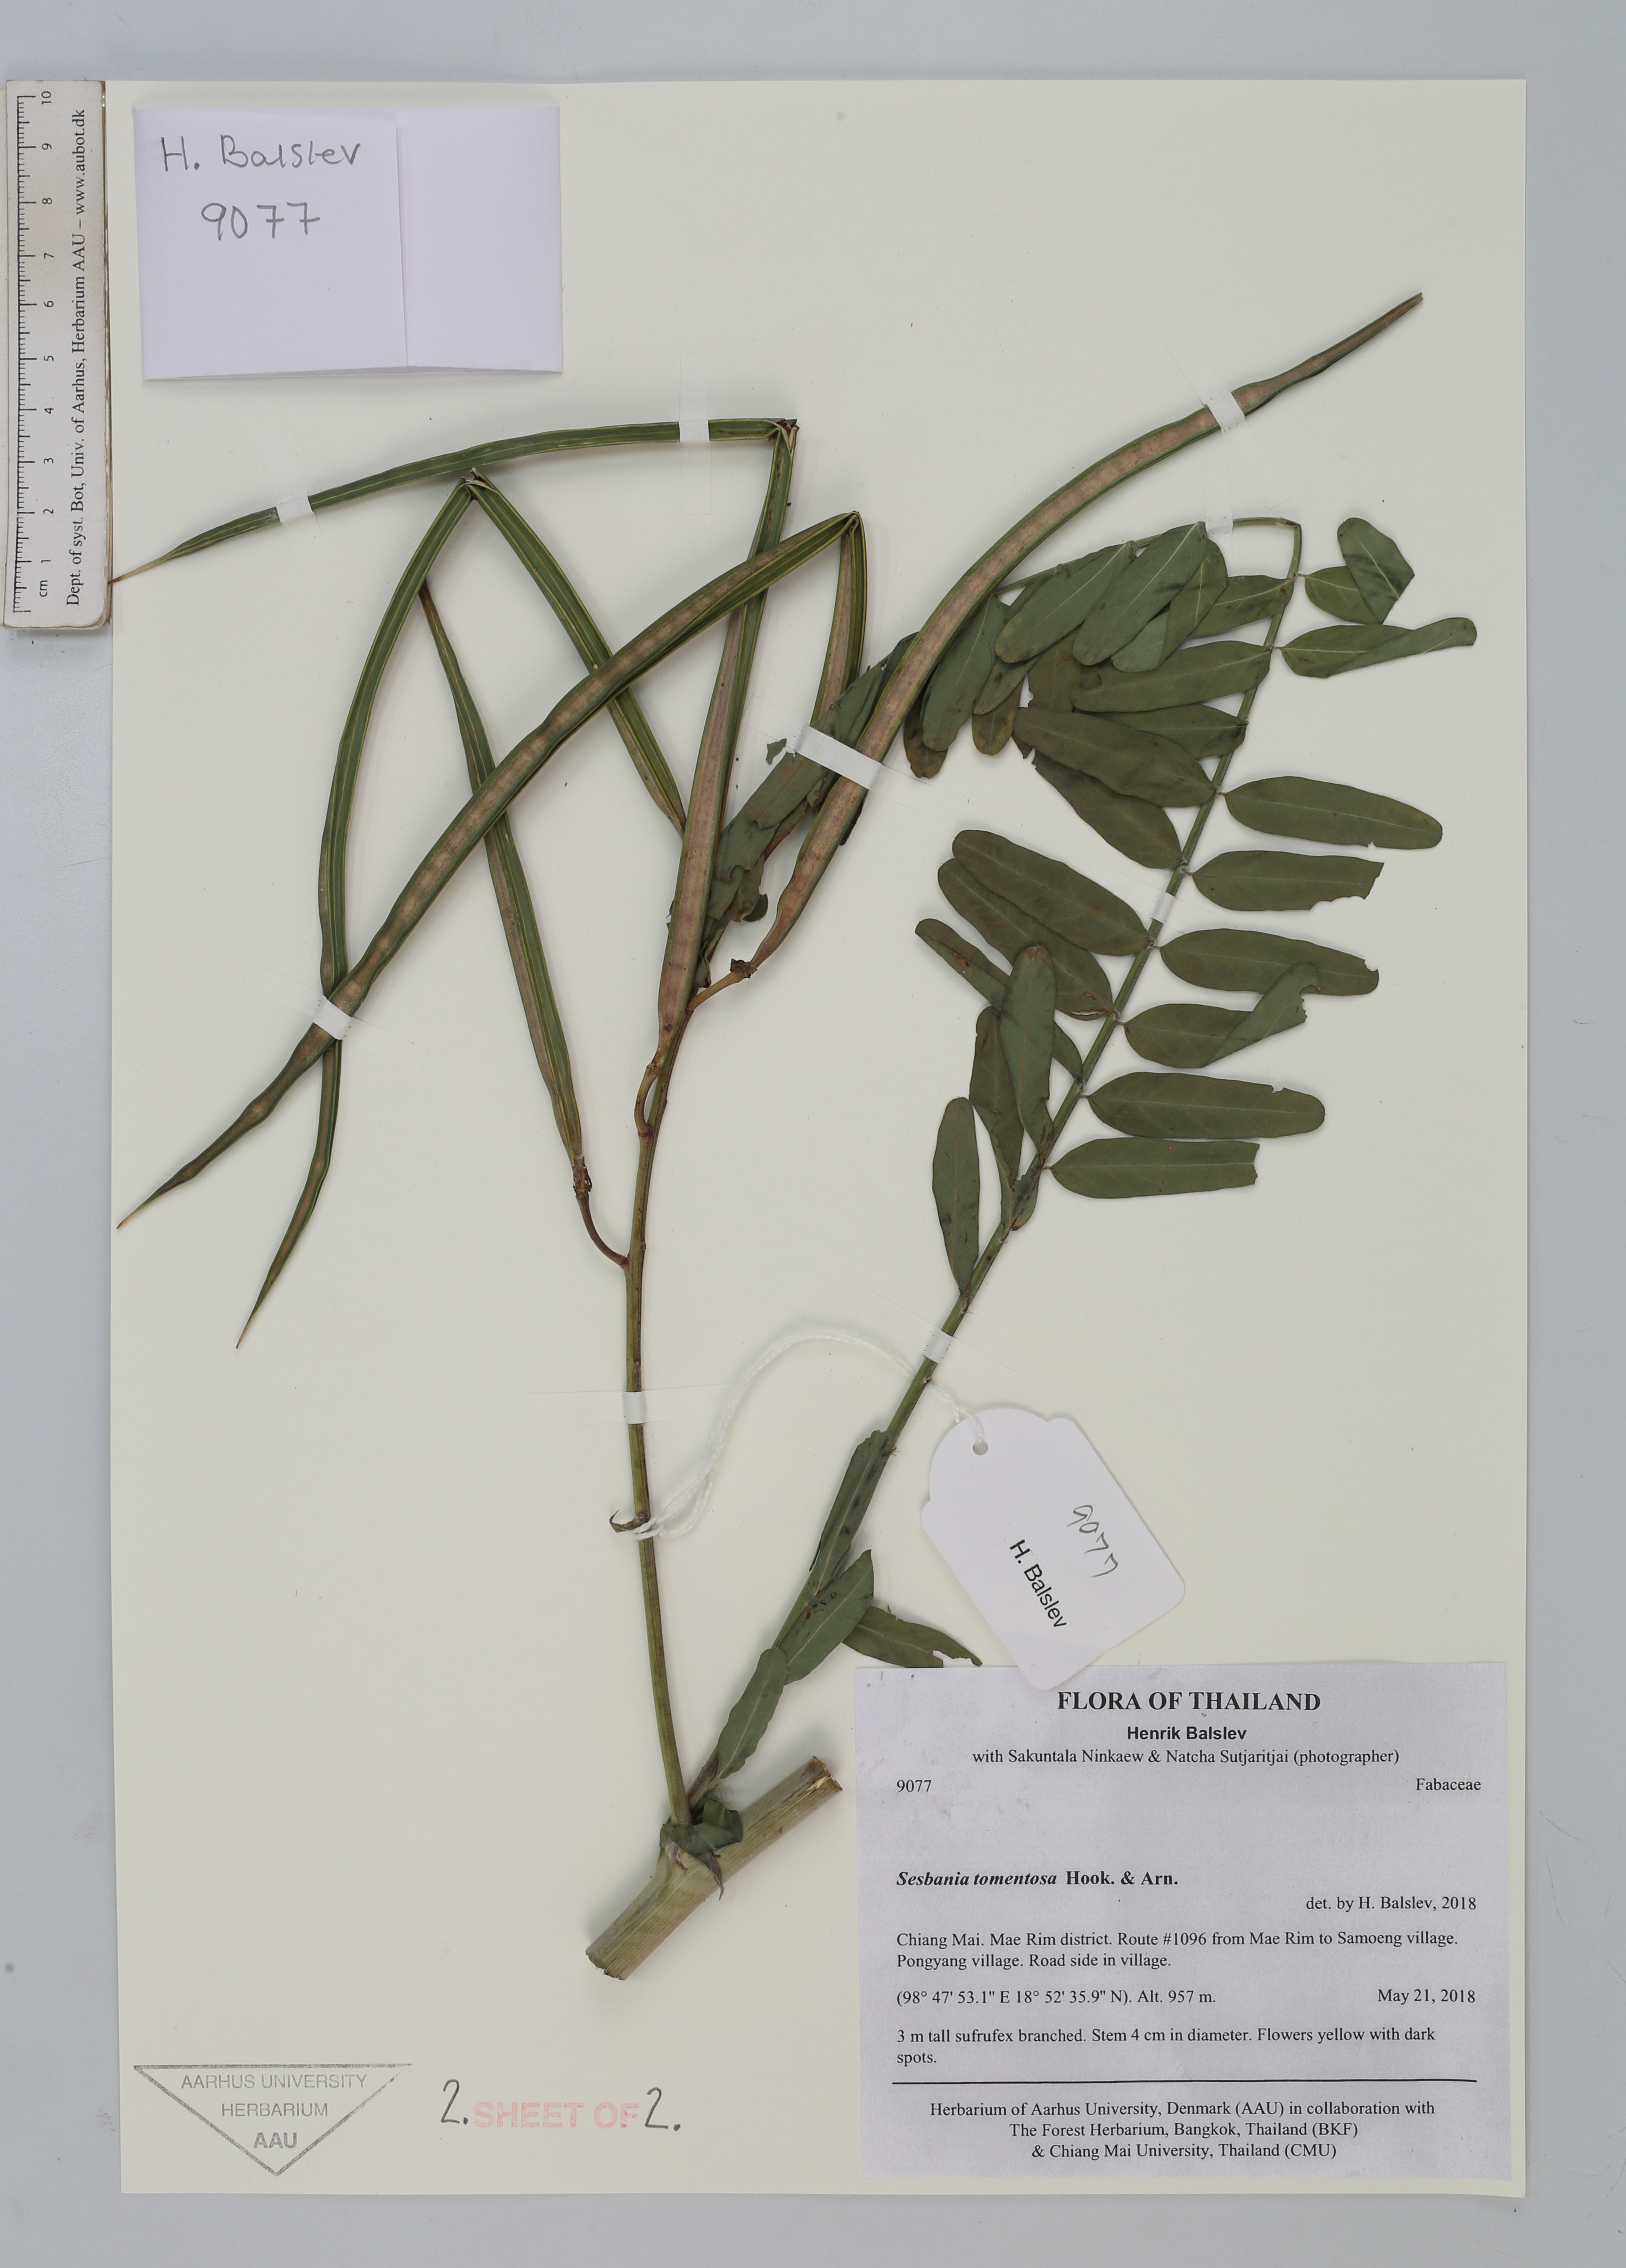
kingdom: Plantae
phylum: Tracheophyta
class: Magnoliopsida
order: Fabales
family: Fabaceae
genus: Sesbania
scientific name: Sesbania speciosa
